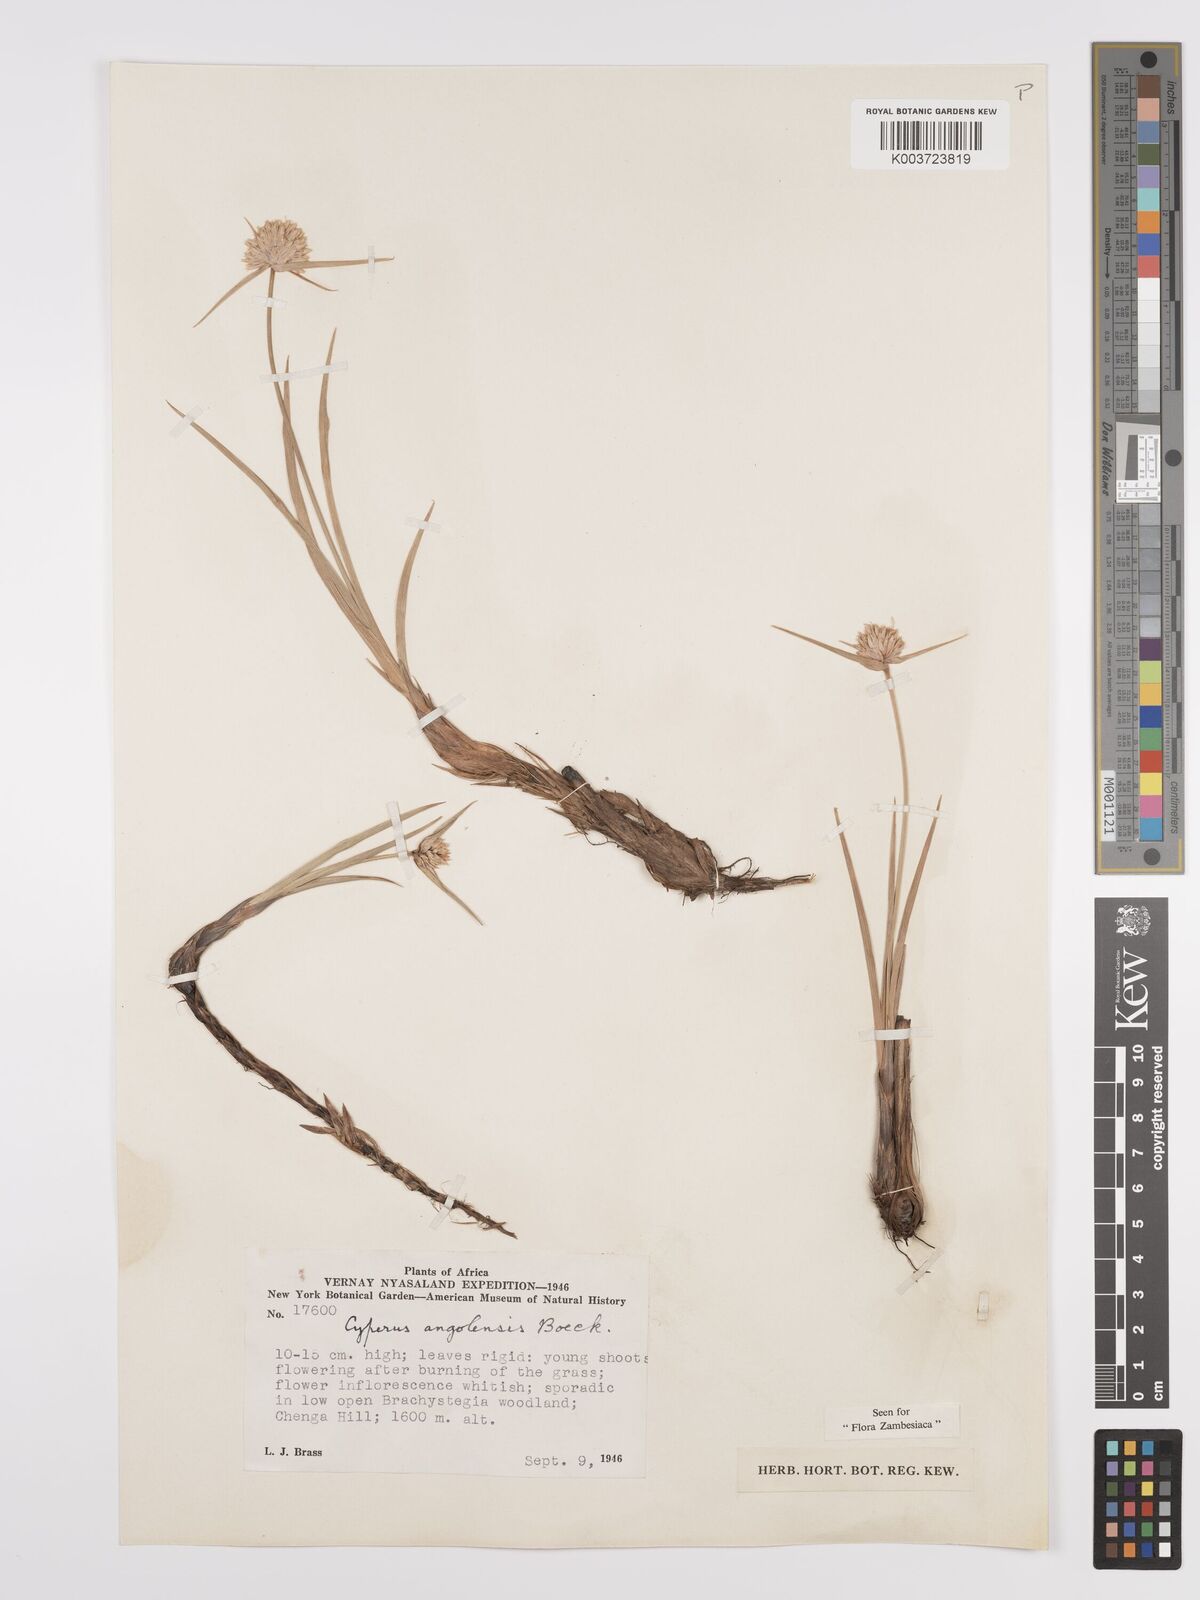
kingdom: Plantae
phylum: Tracheophyta
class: Liliopsida
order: Poales
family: Cyperaceae
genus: Cyperus
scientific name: Cyperus angolensis
